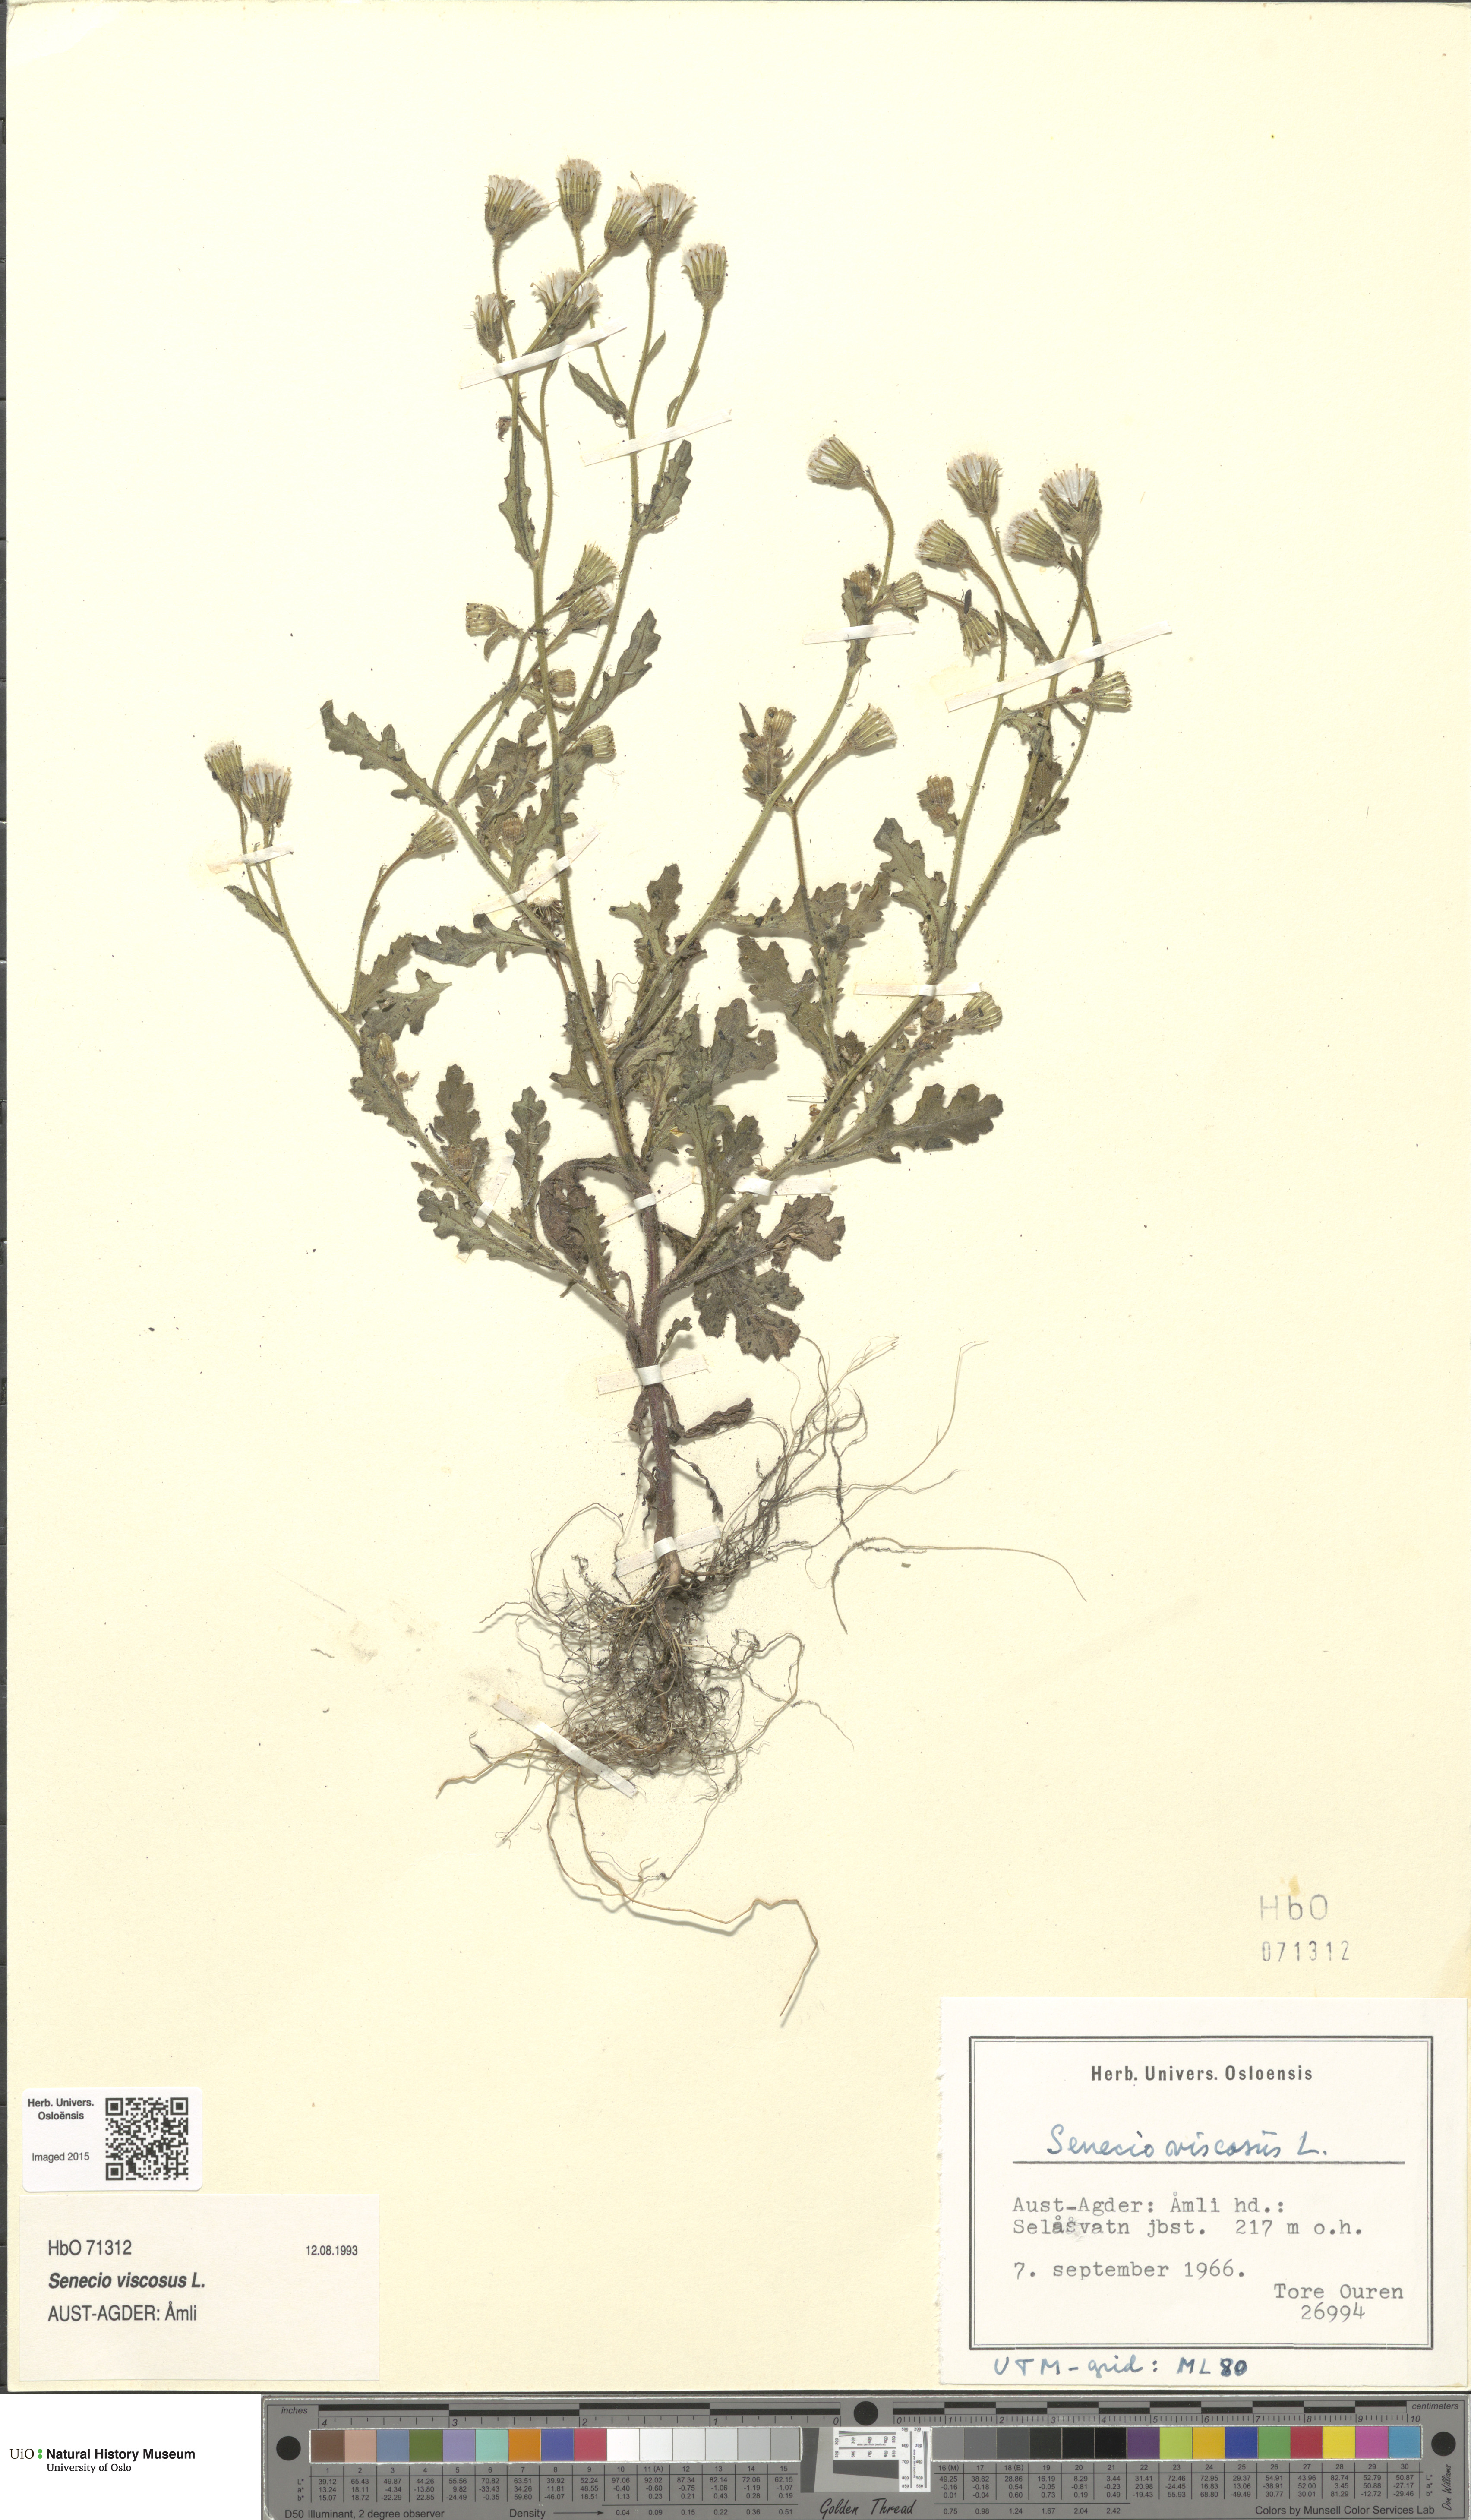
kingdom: Plantae
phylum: Tracheophyta
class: Magnoliopsida
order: Asterales
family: Asteraceae
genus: Senecio
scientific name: Senecio viscosus
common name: Sticky groundsel
